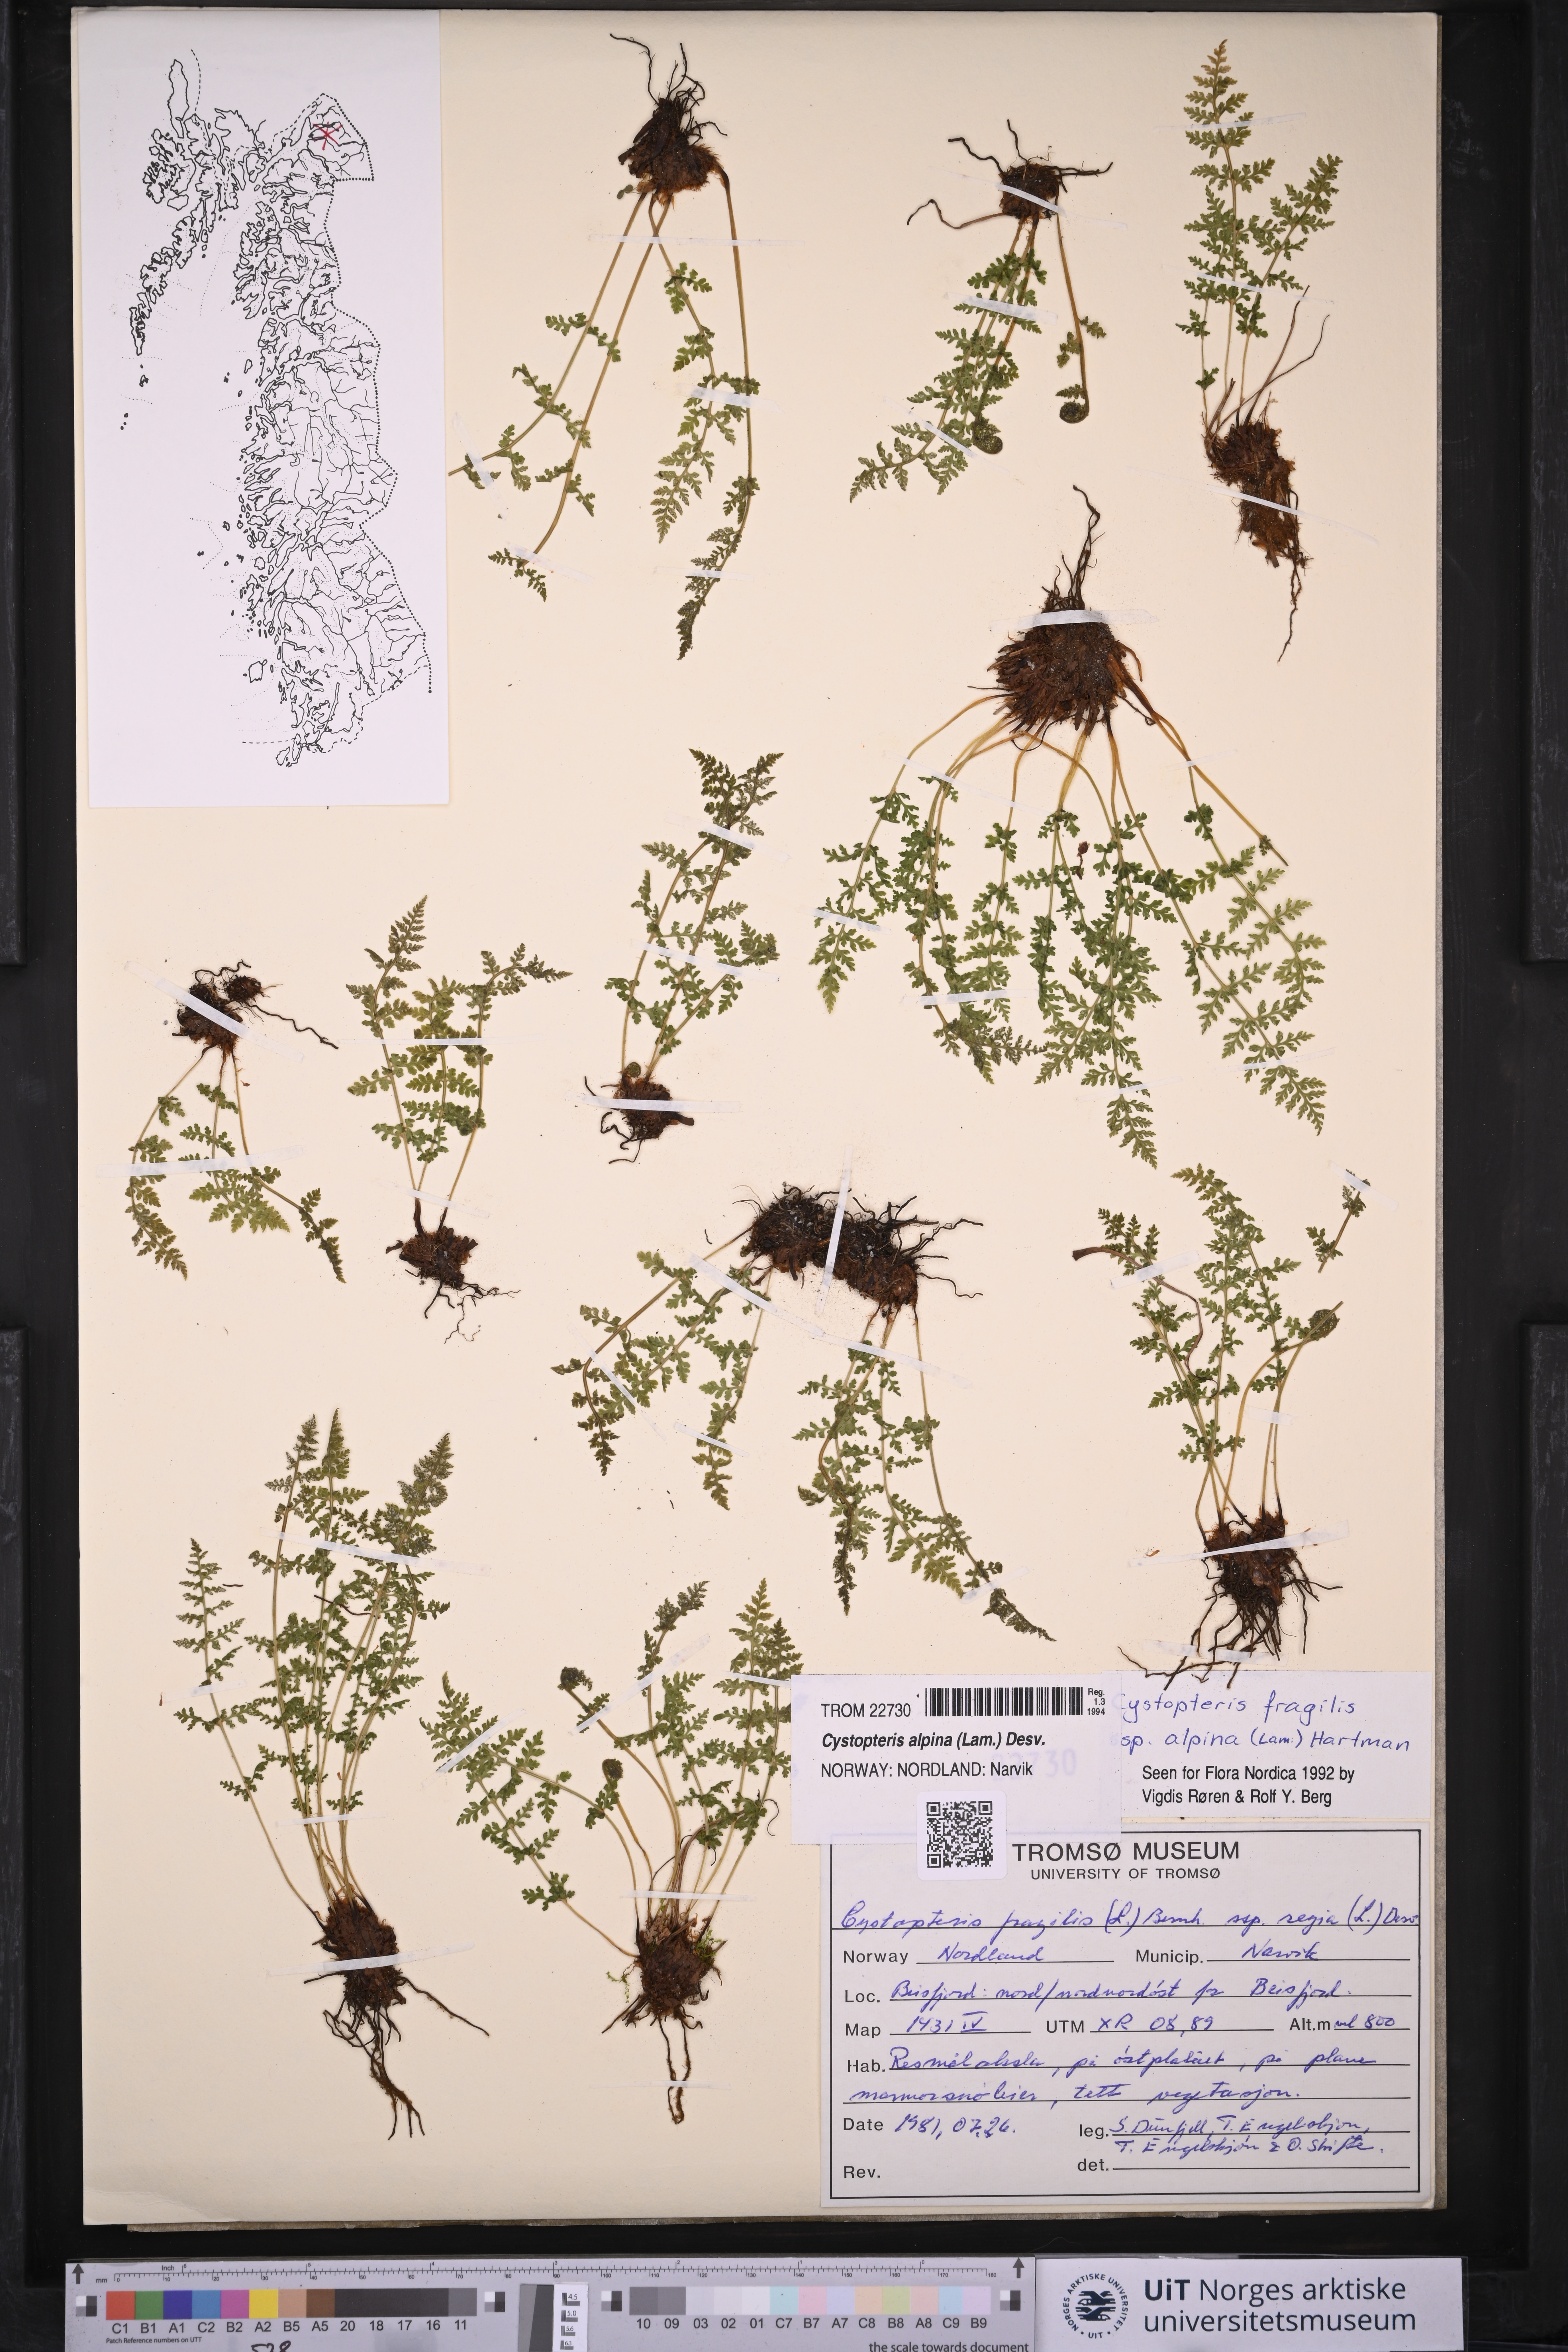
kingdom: Plantae
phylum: Tracheophyta
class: Polypodiopsida
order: Polypodiales
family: Cystopteridaceae
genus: Cystopteris
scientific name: Cystopteris alpina
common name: Alpine bladder-fern
